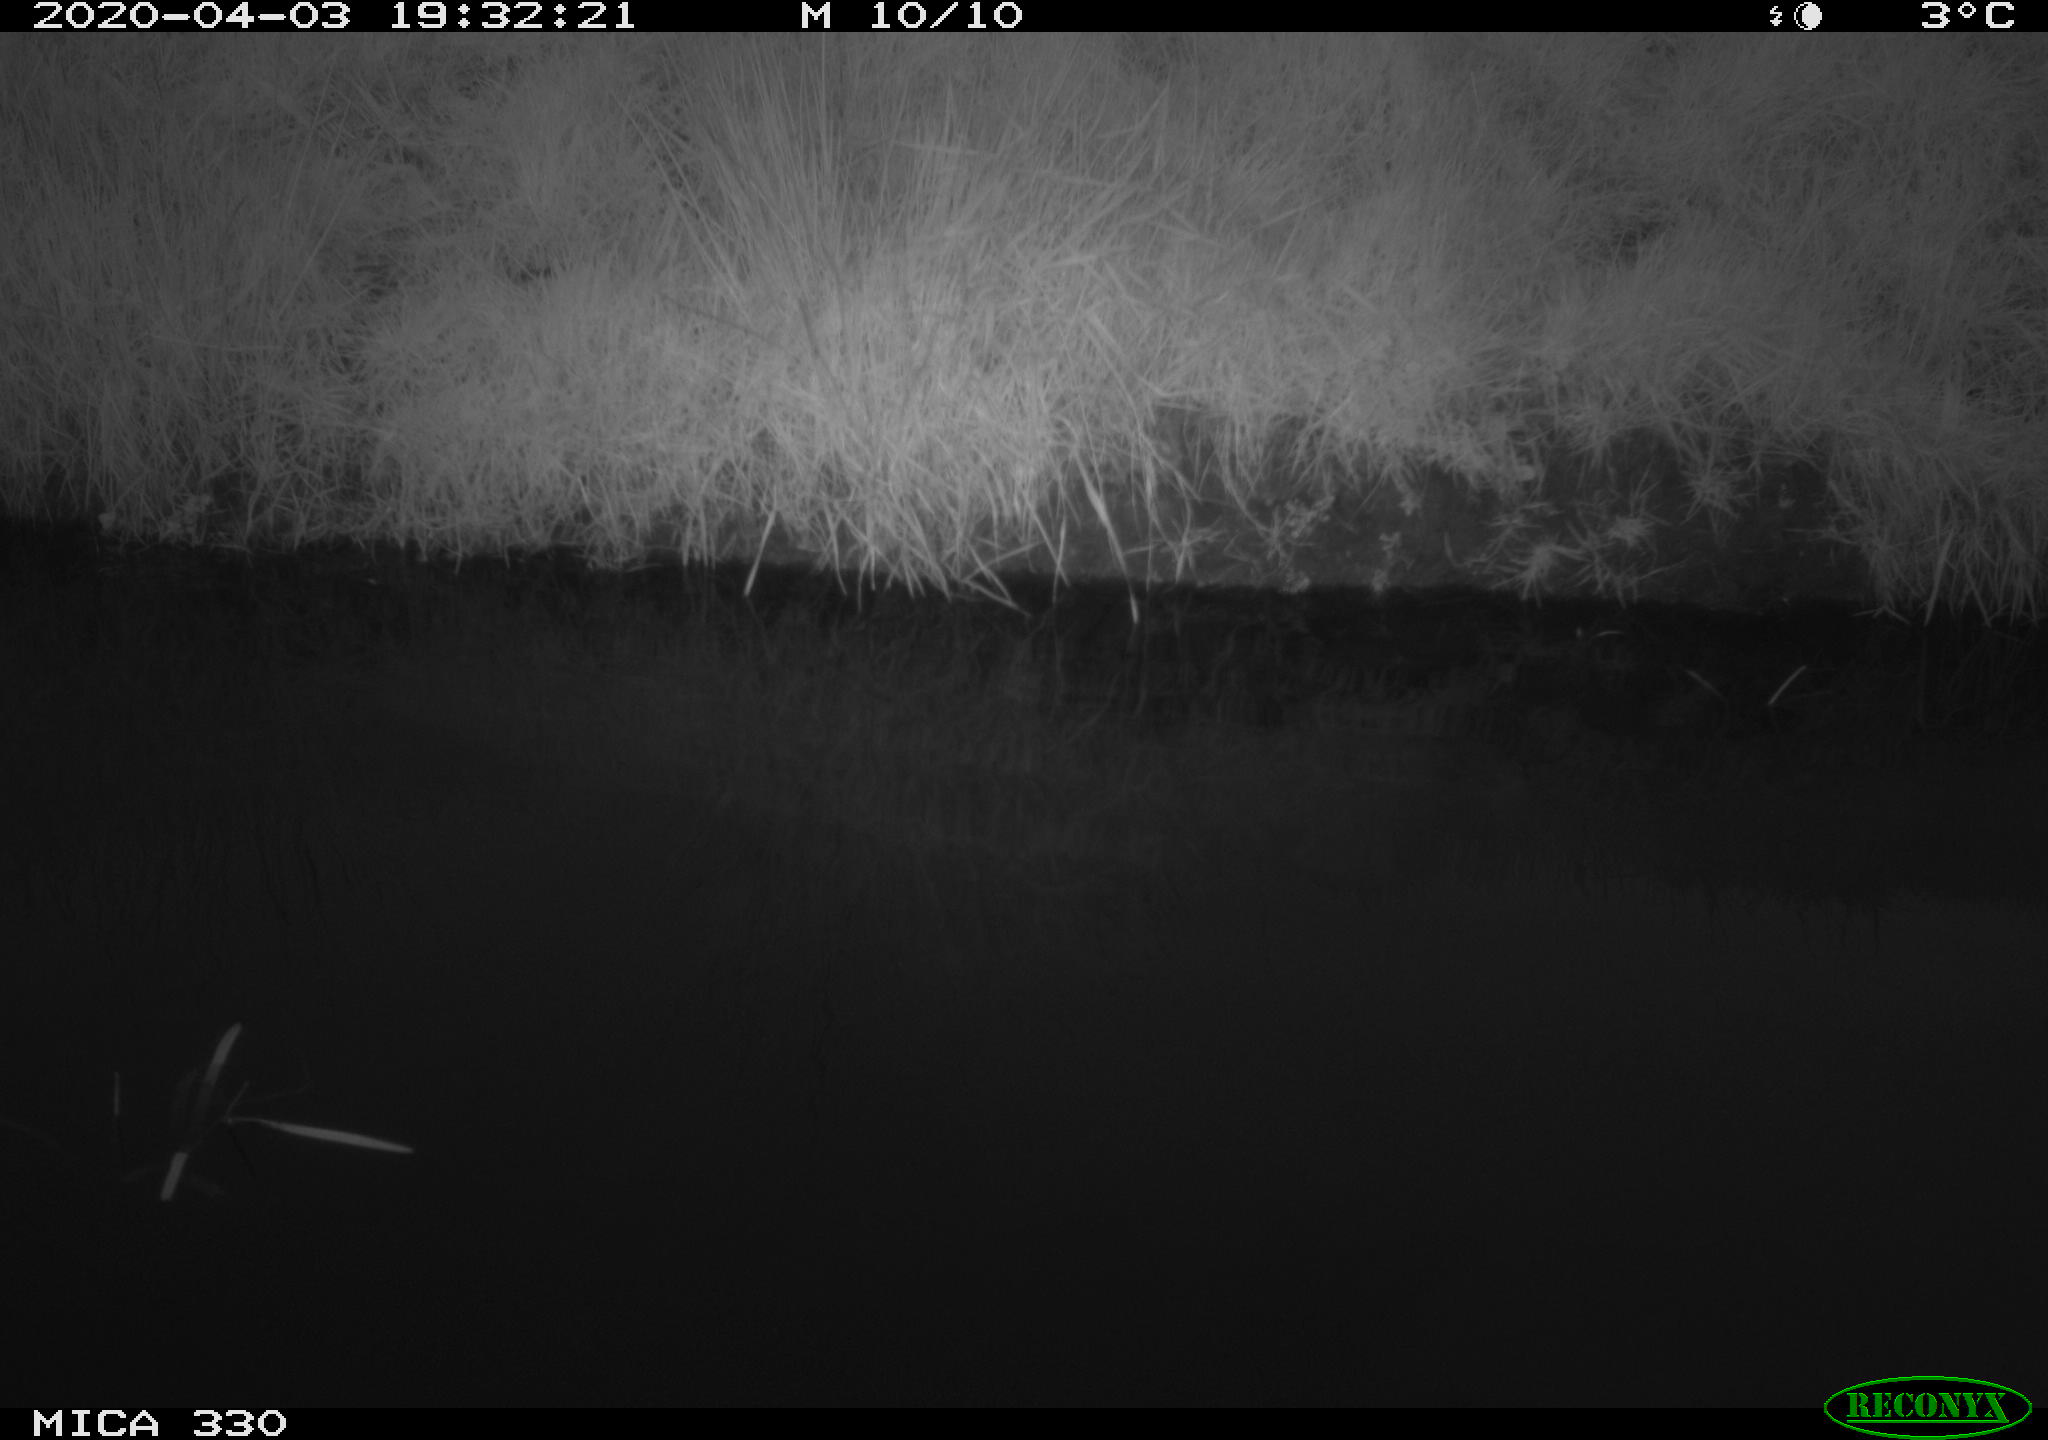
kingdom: Animalia
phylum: Chordata
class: Aves
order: Anseriformes
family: Anatidae
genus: Anas
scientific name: Anas platyrhynchos
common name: Mallard
